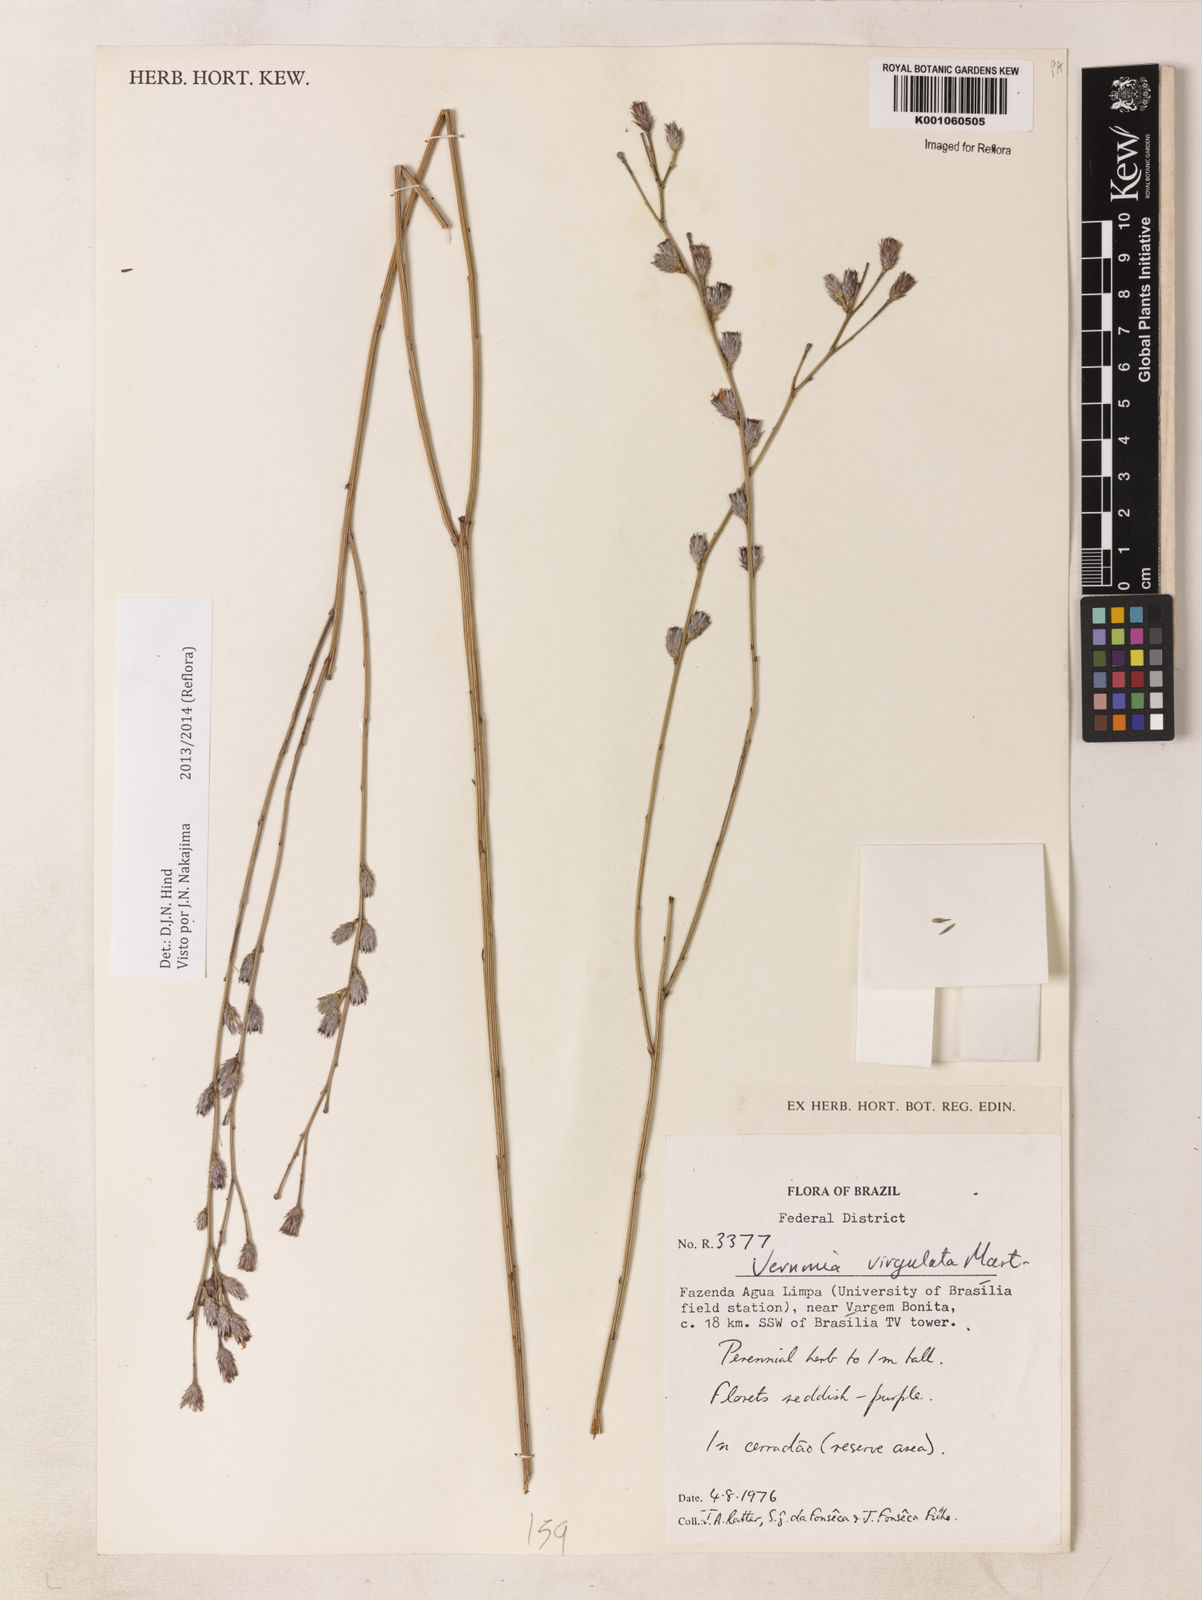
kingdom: Plantae
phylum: Tracheophyta
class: Magnoliopsida
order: Asterales
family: Asteraceae
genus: Lessingianthus
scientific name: Lessingianthus virgulatus
